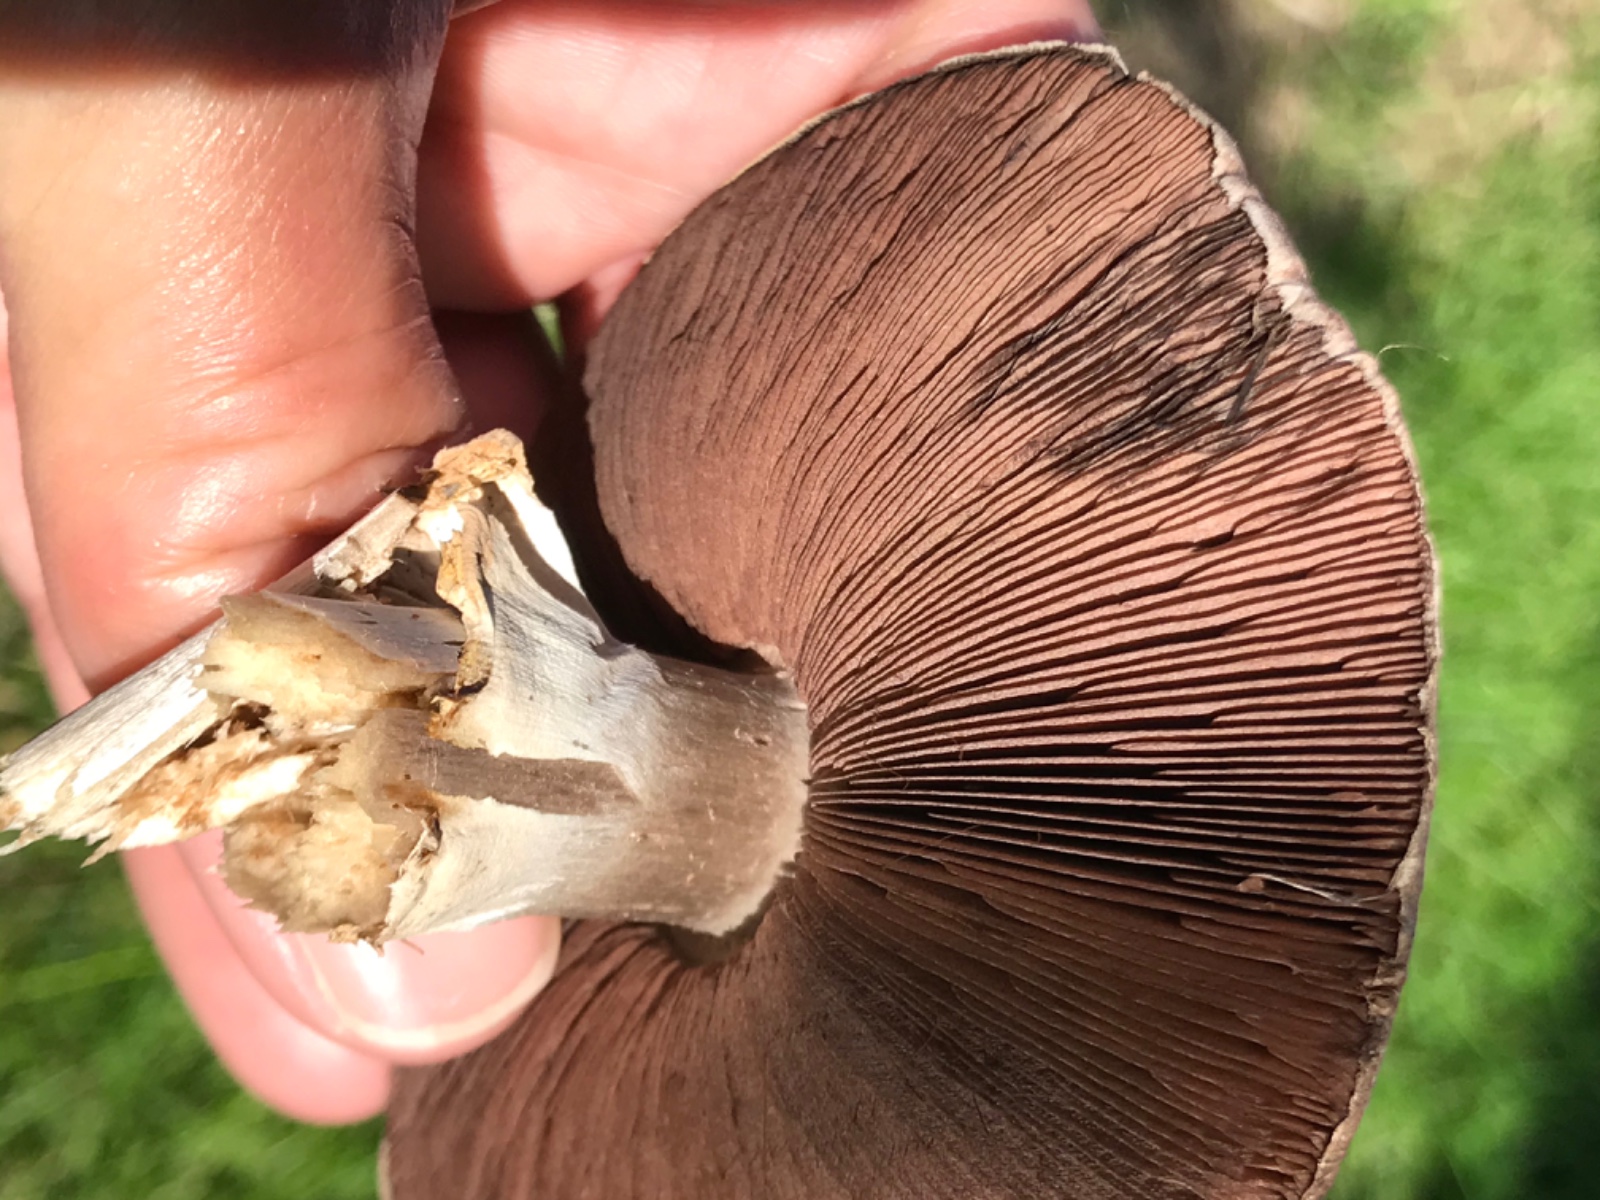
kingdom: Fungi
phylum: Basidiomycota
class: Agaricomycetes
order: Agaricales
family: Agaricaceae
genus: Agaricus
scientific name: Agaricus
